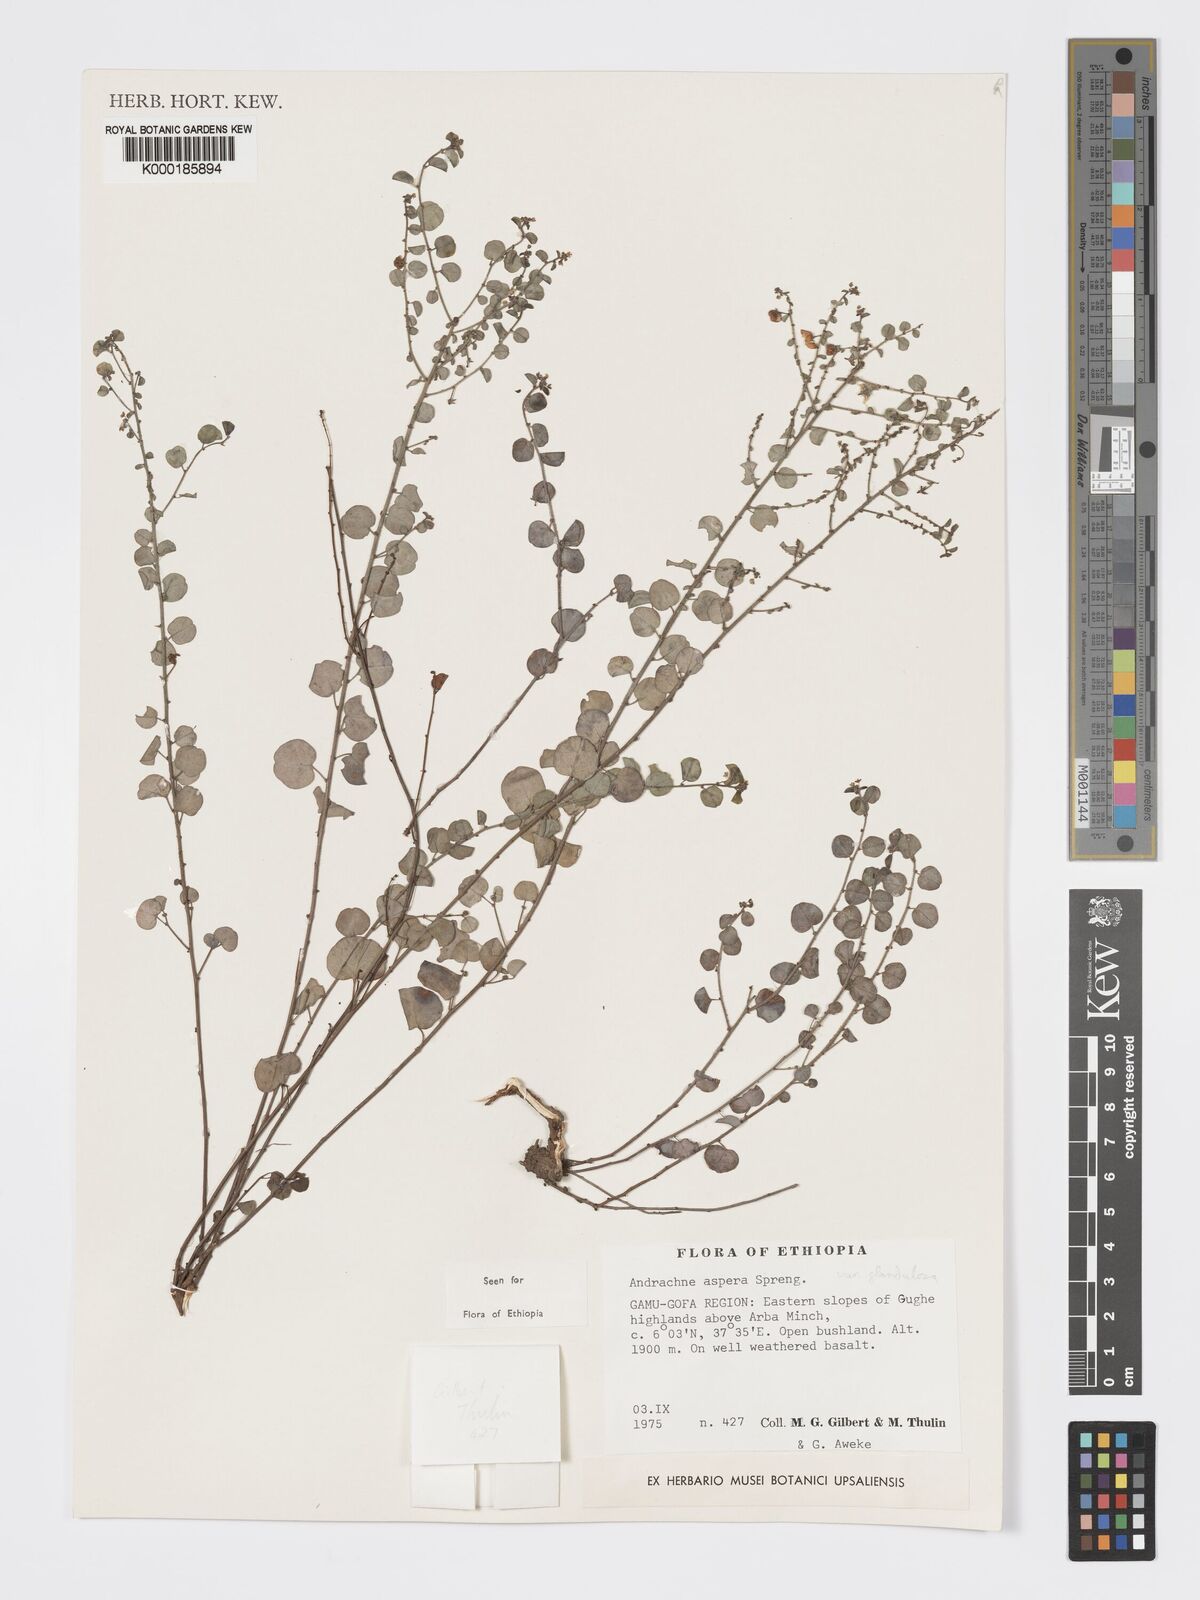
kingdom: Plantae
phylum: Tracheophyta
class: Magnoliopsida
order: Malpighiales
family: Phyllanthaceae
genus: Andrachne
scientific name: Andrachne aspera
